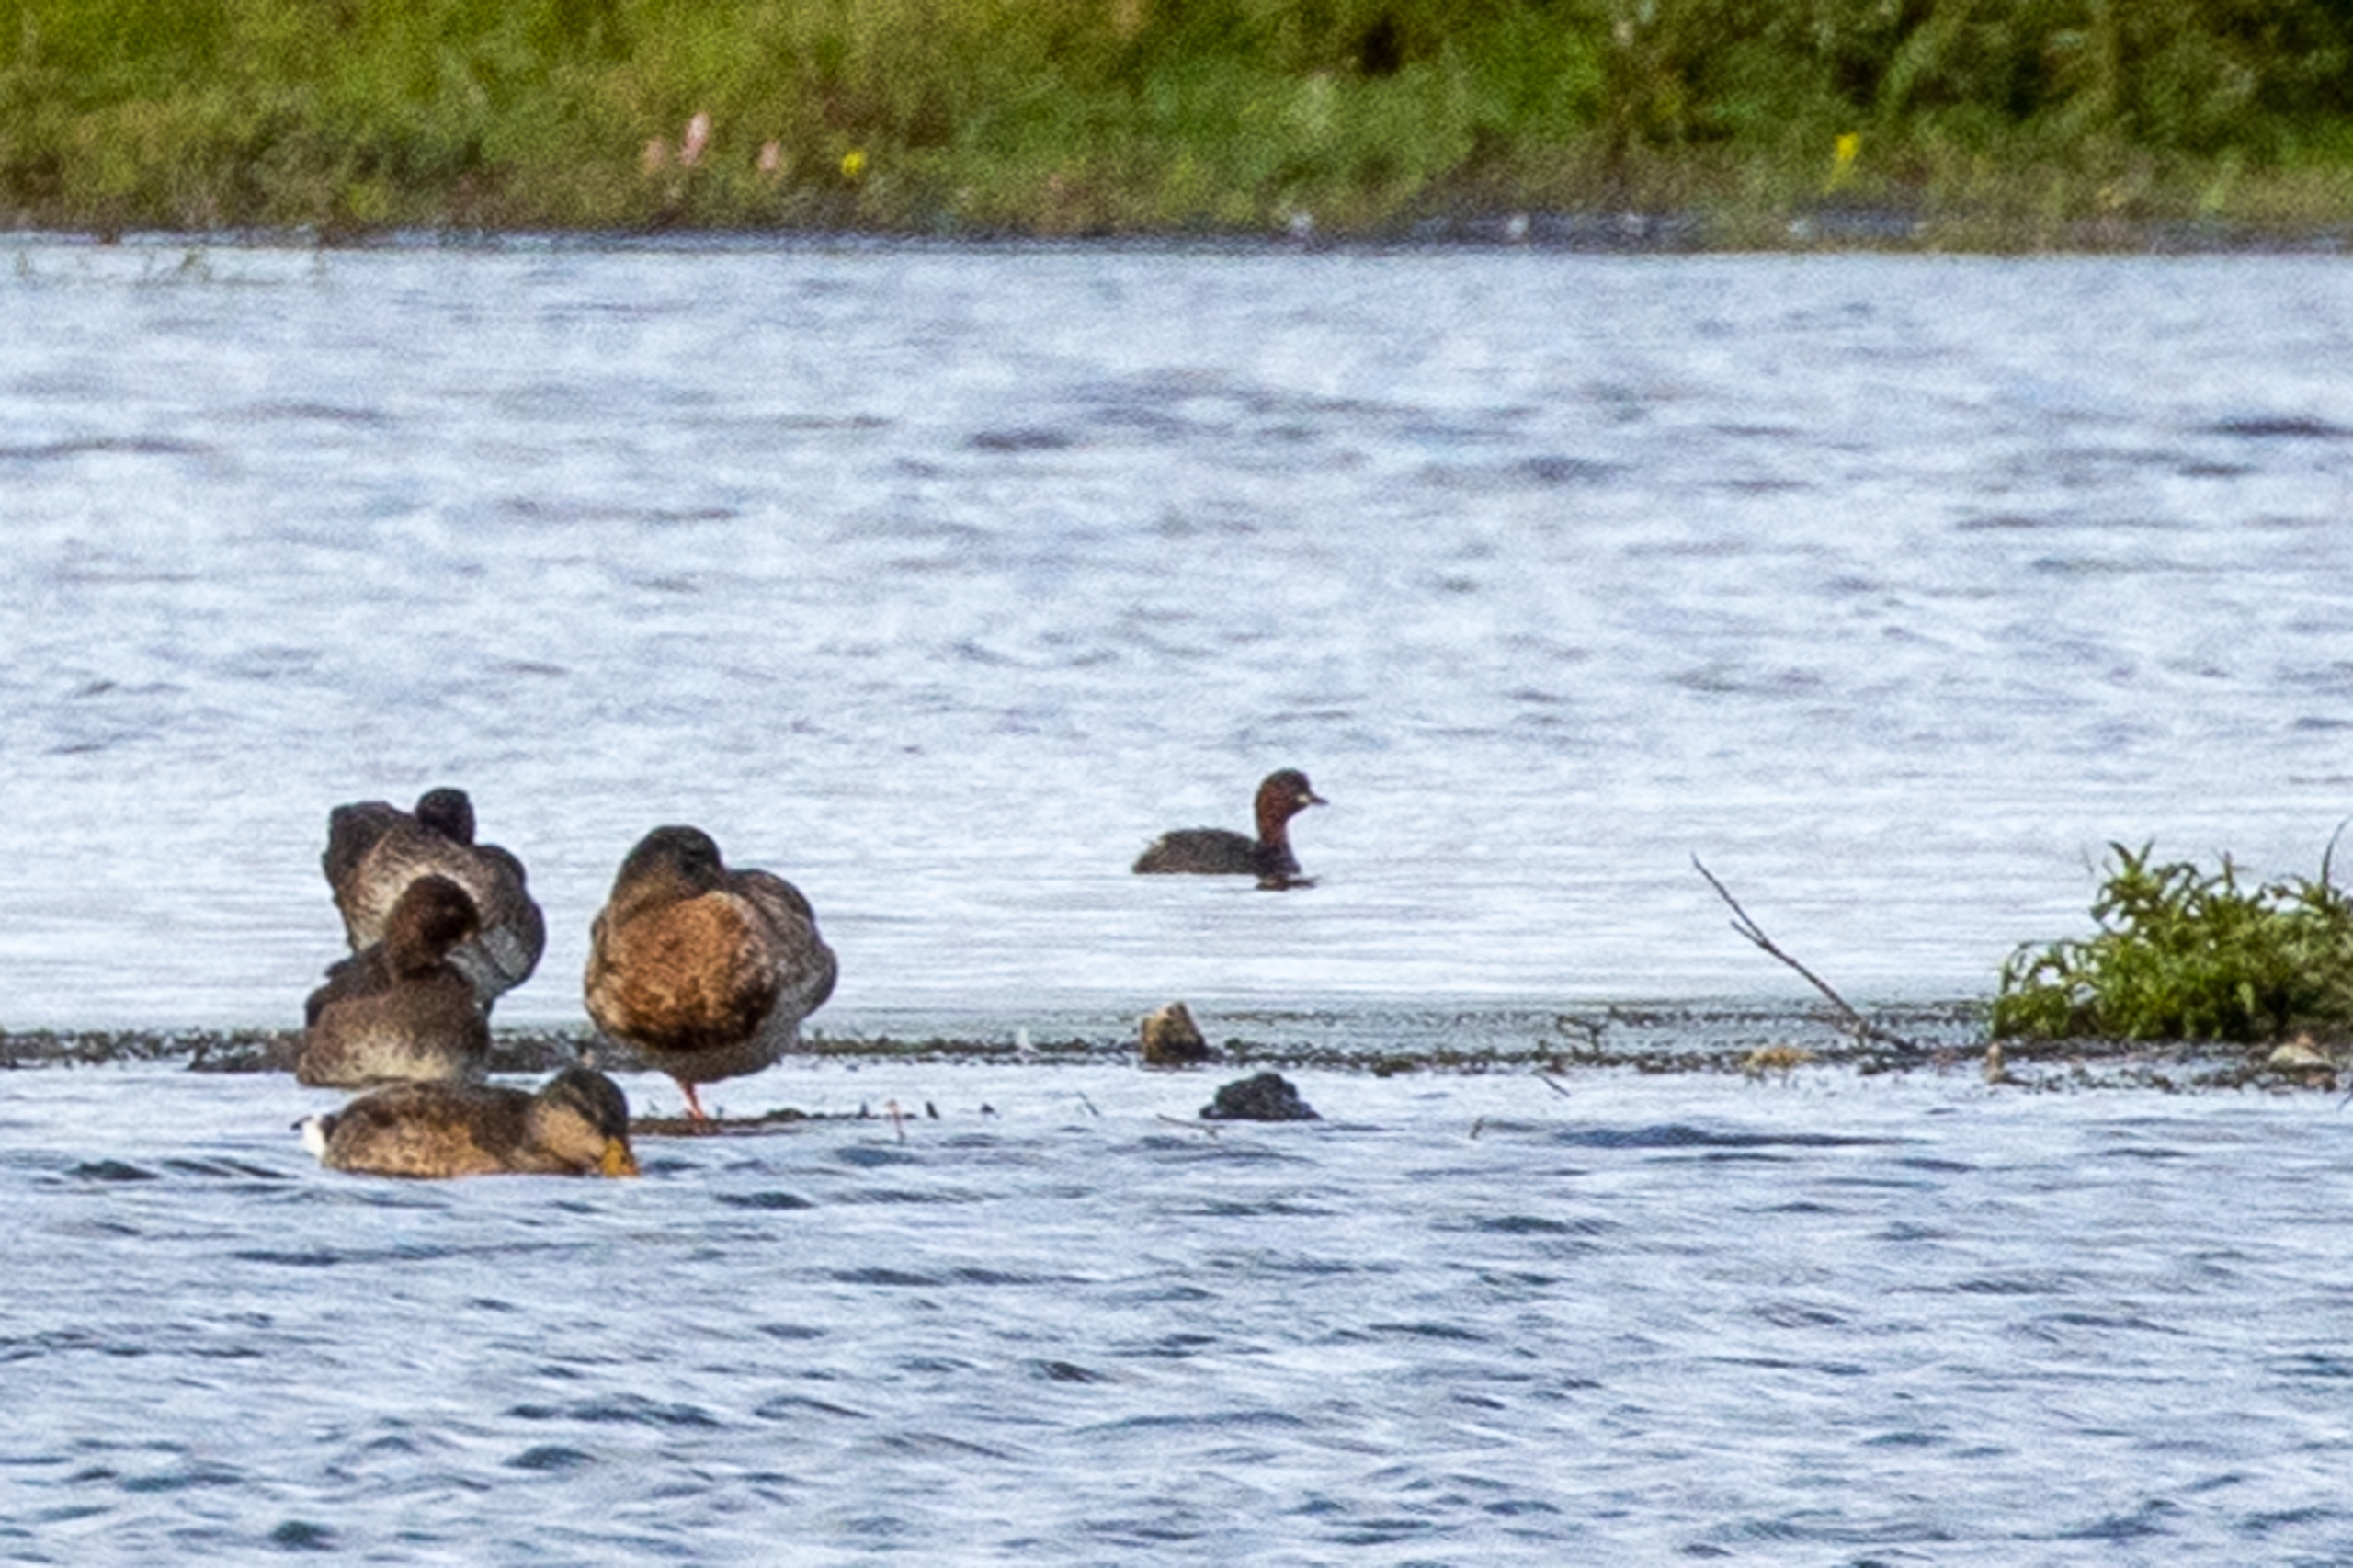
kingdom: Animalia
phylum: Chordata
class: Aves
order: Podicipediformes
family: Podicipedidae
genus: Tachybaptus
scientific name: Tachybaptus ruficollis
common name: Lille lappedykker
